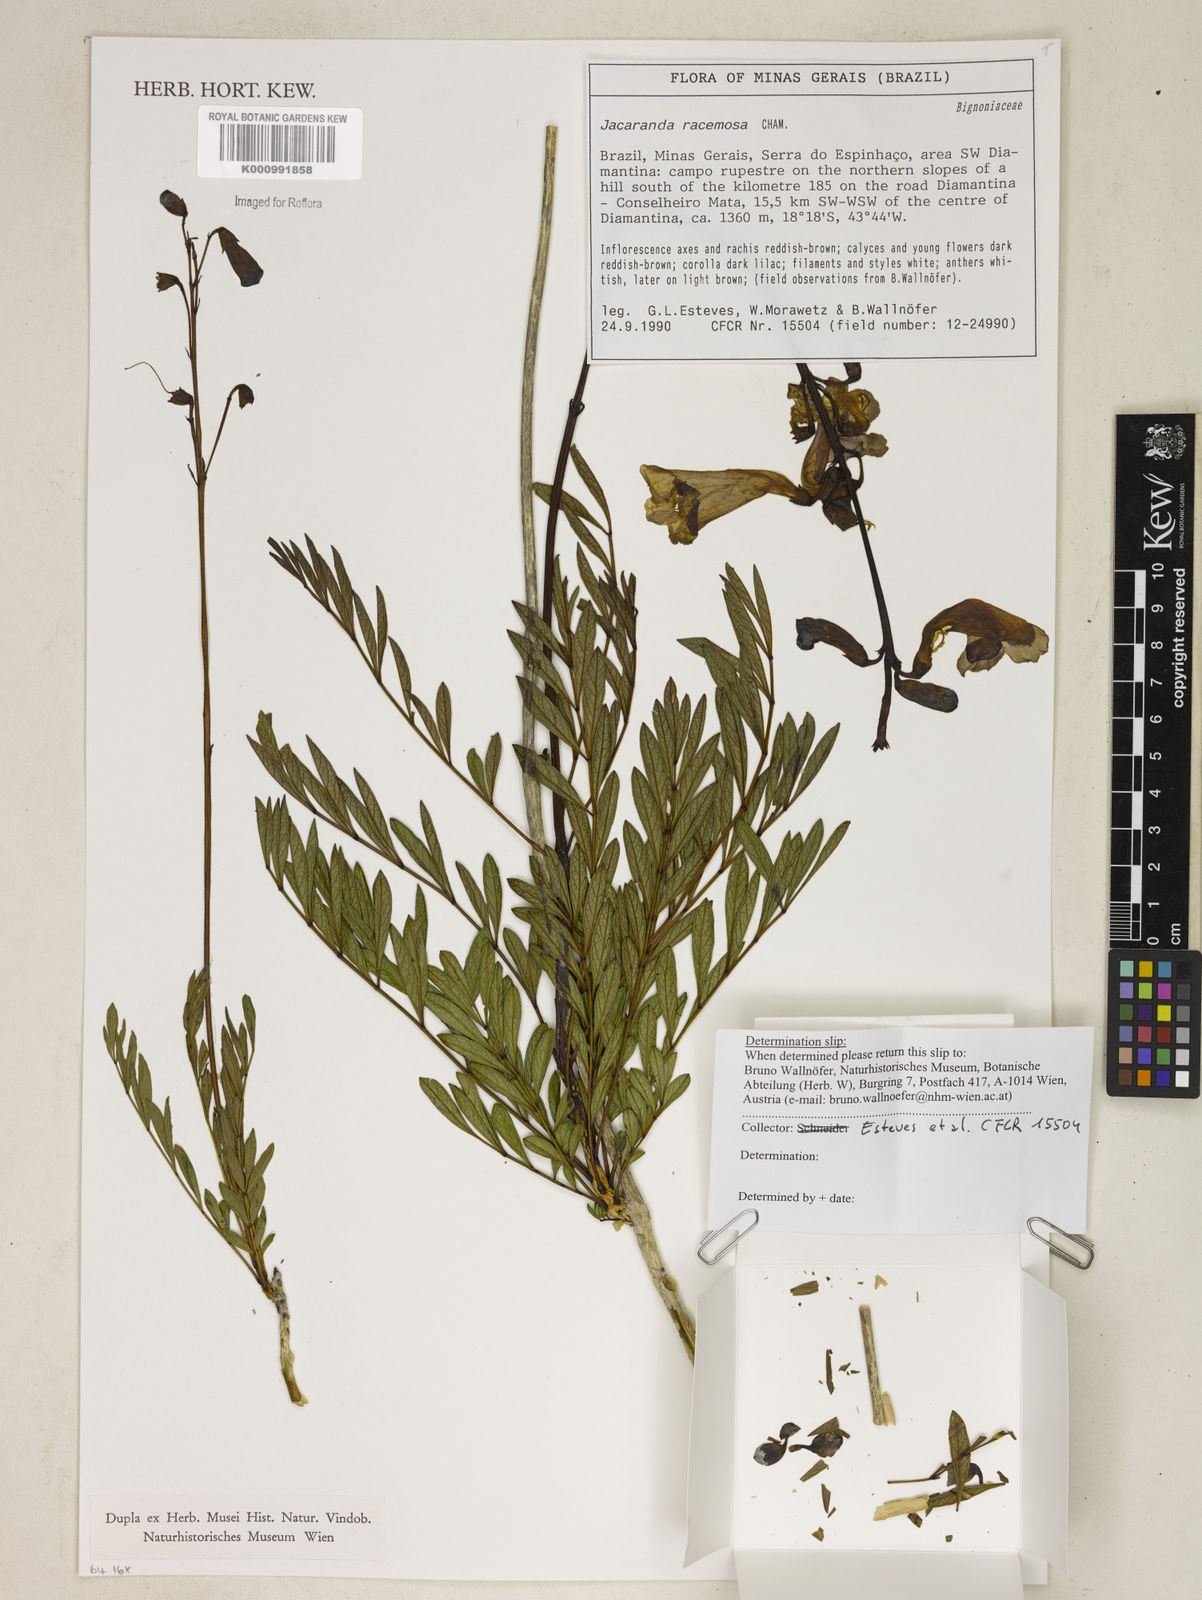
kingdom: Plantae
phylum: Tracheophyta
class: Magnoliopsida
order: Lamiales
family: Bignoniaceae
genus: Jacaranda
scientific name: Jacaranda racemosa
